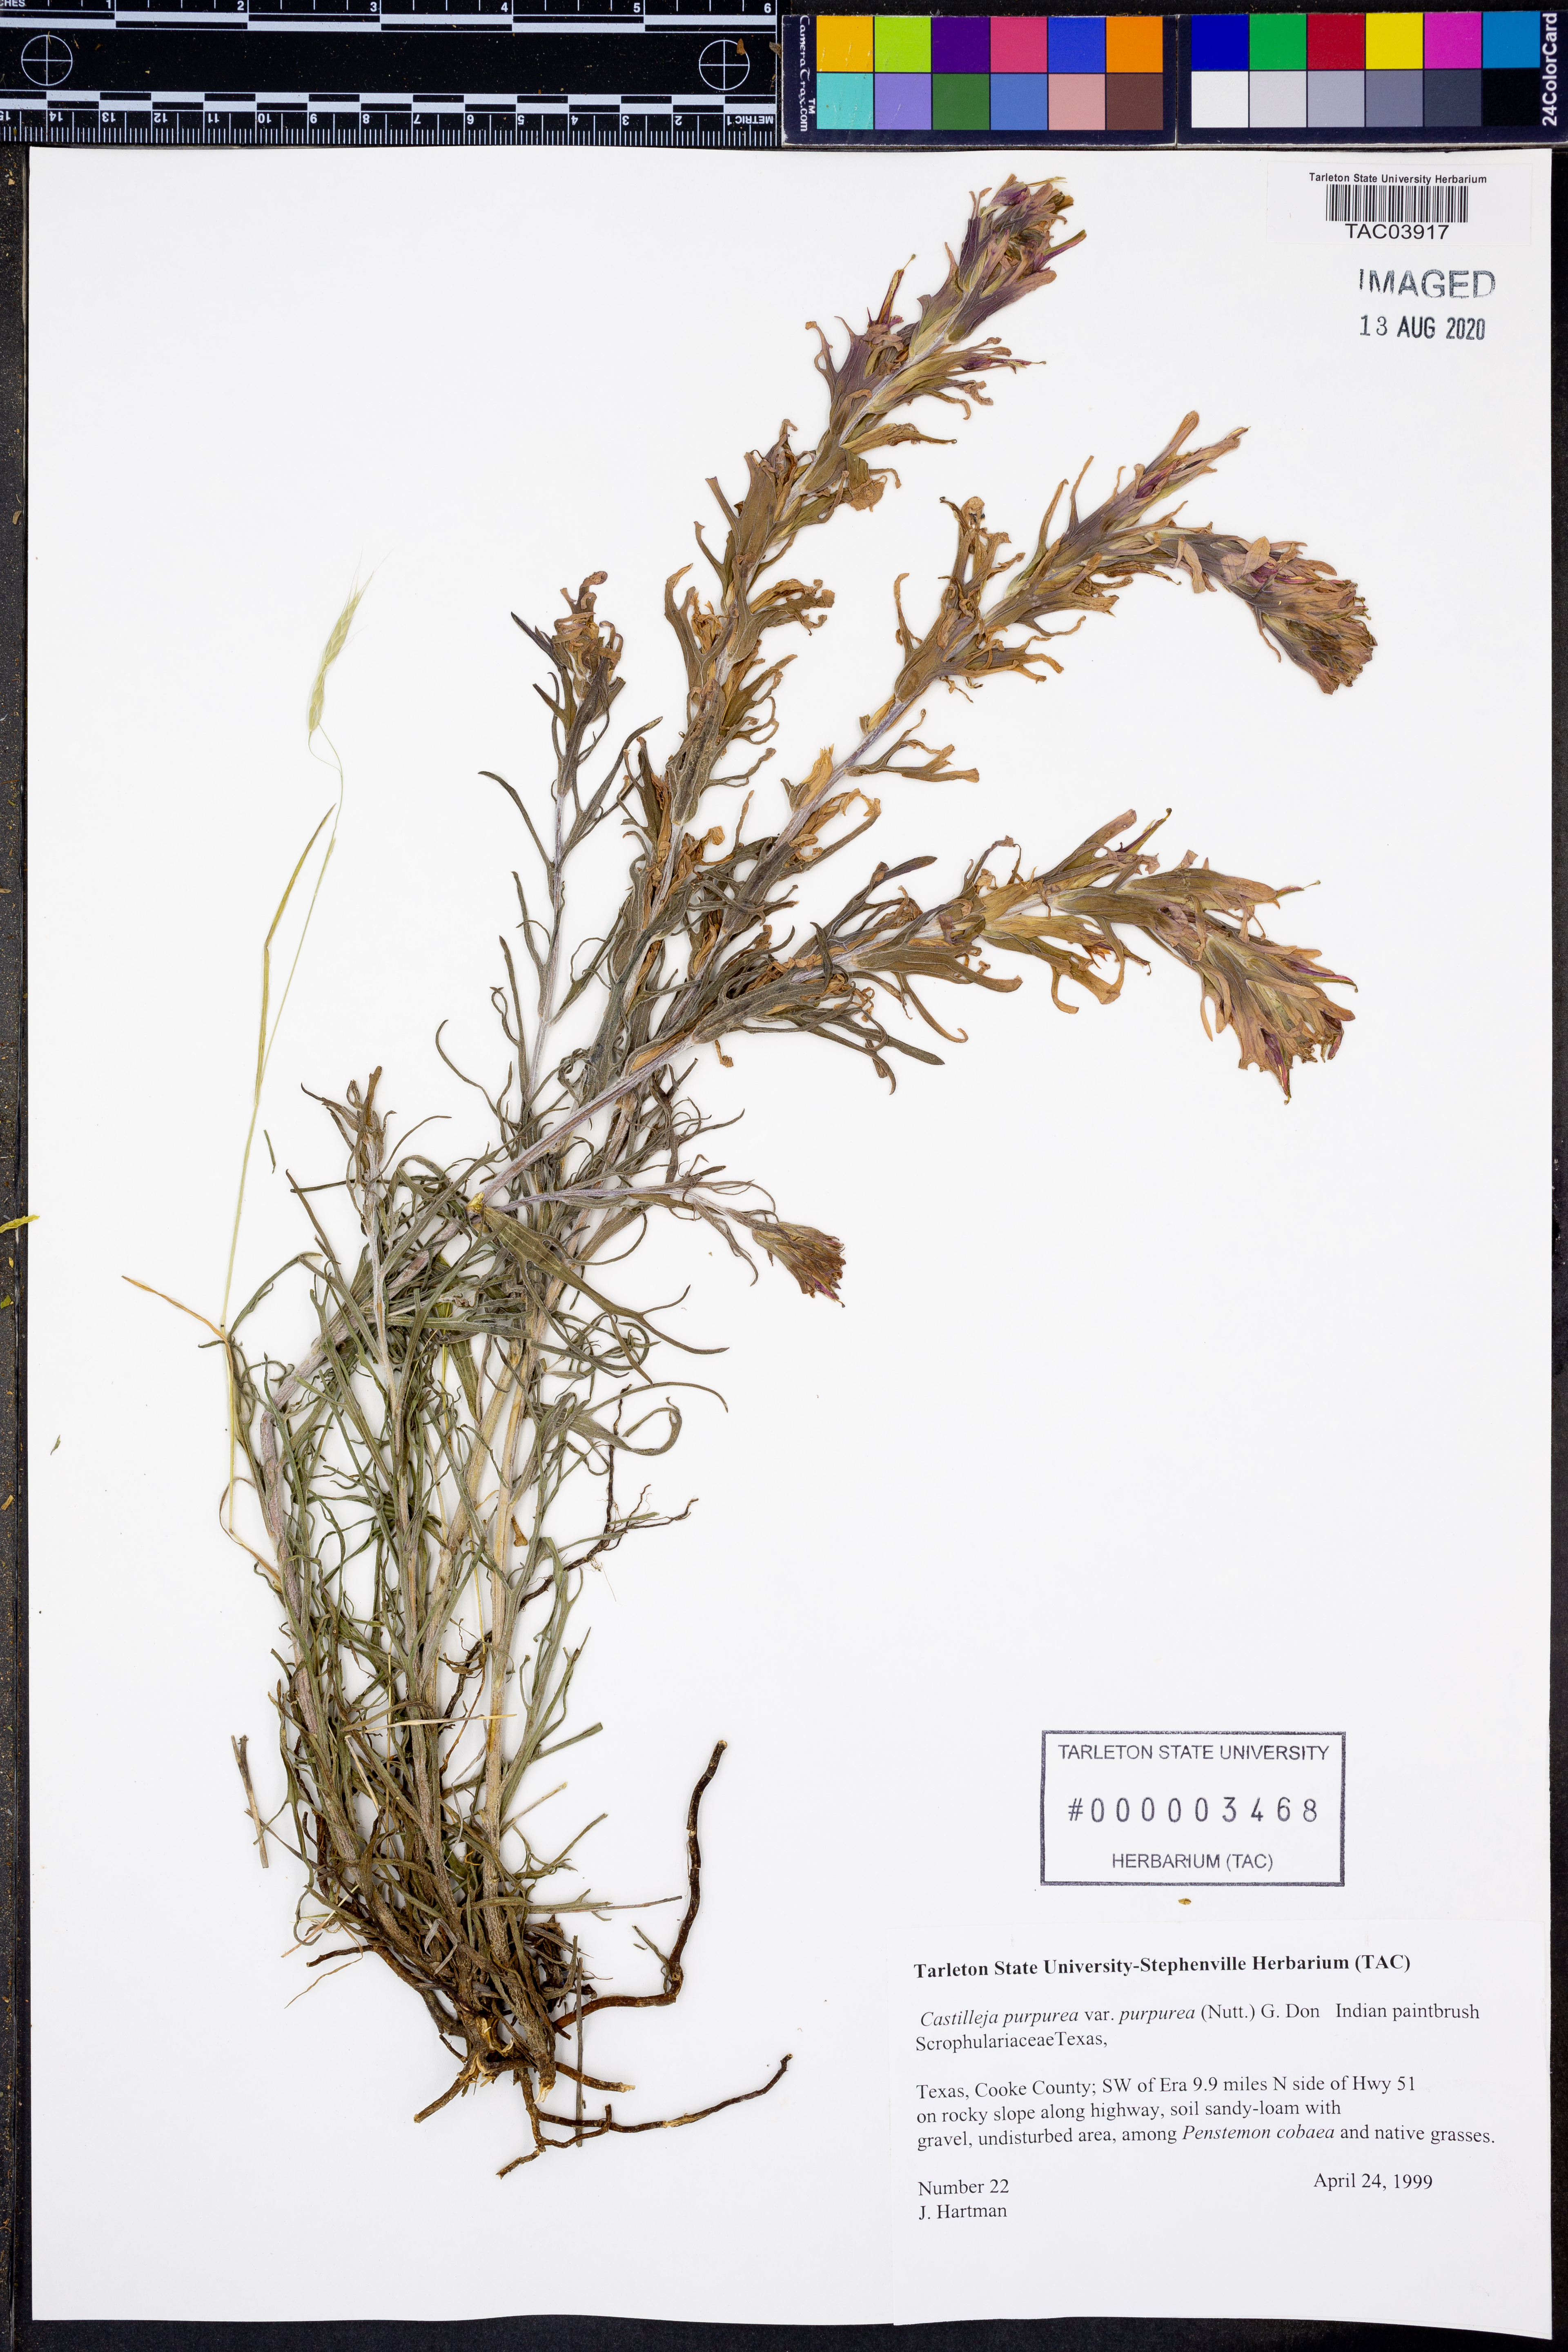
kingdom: Plantae
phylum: Tracheophyta
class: Magnoliopsida
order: Lamiales
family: Orobanchaceae
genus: Castilleja
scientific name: Castilleja purpurea
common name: Plains paintbrush
